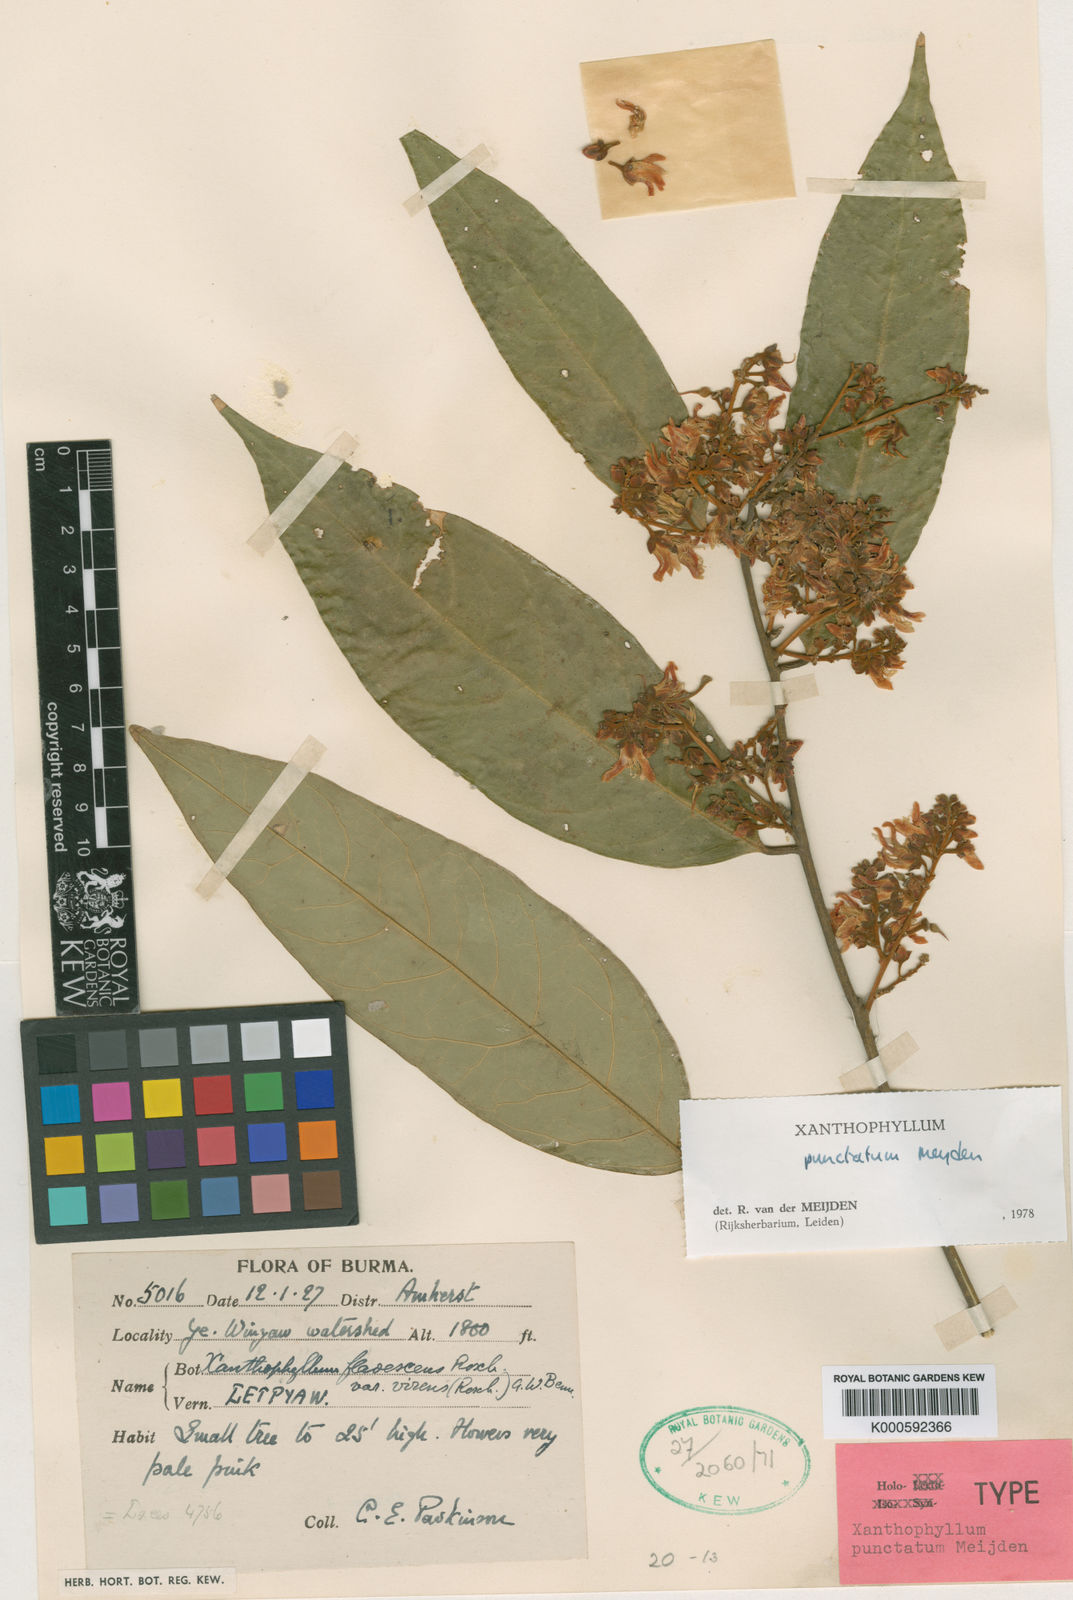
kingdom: Plantae
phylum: Tracheophyta
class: Magnoliopsida
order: Fabales
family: Polygalaceae
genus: Xanthophyllum
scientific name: Xanthophyllum punctatum
